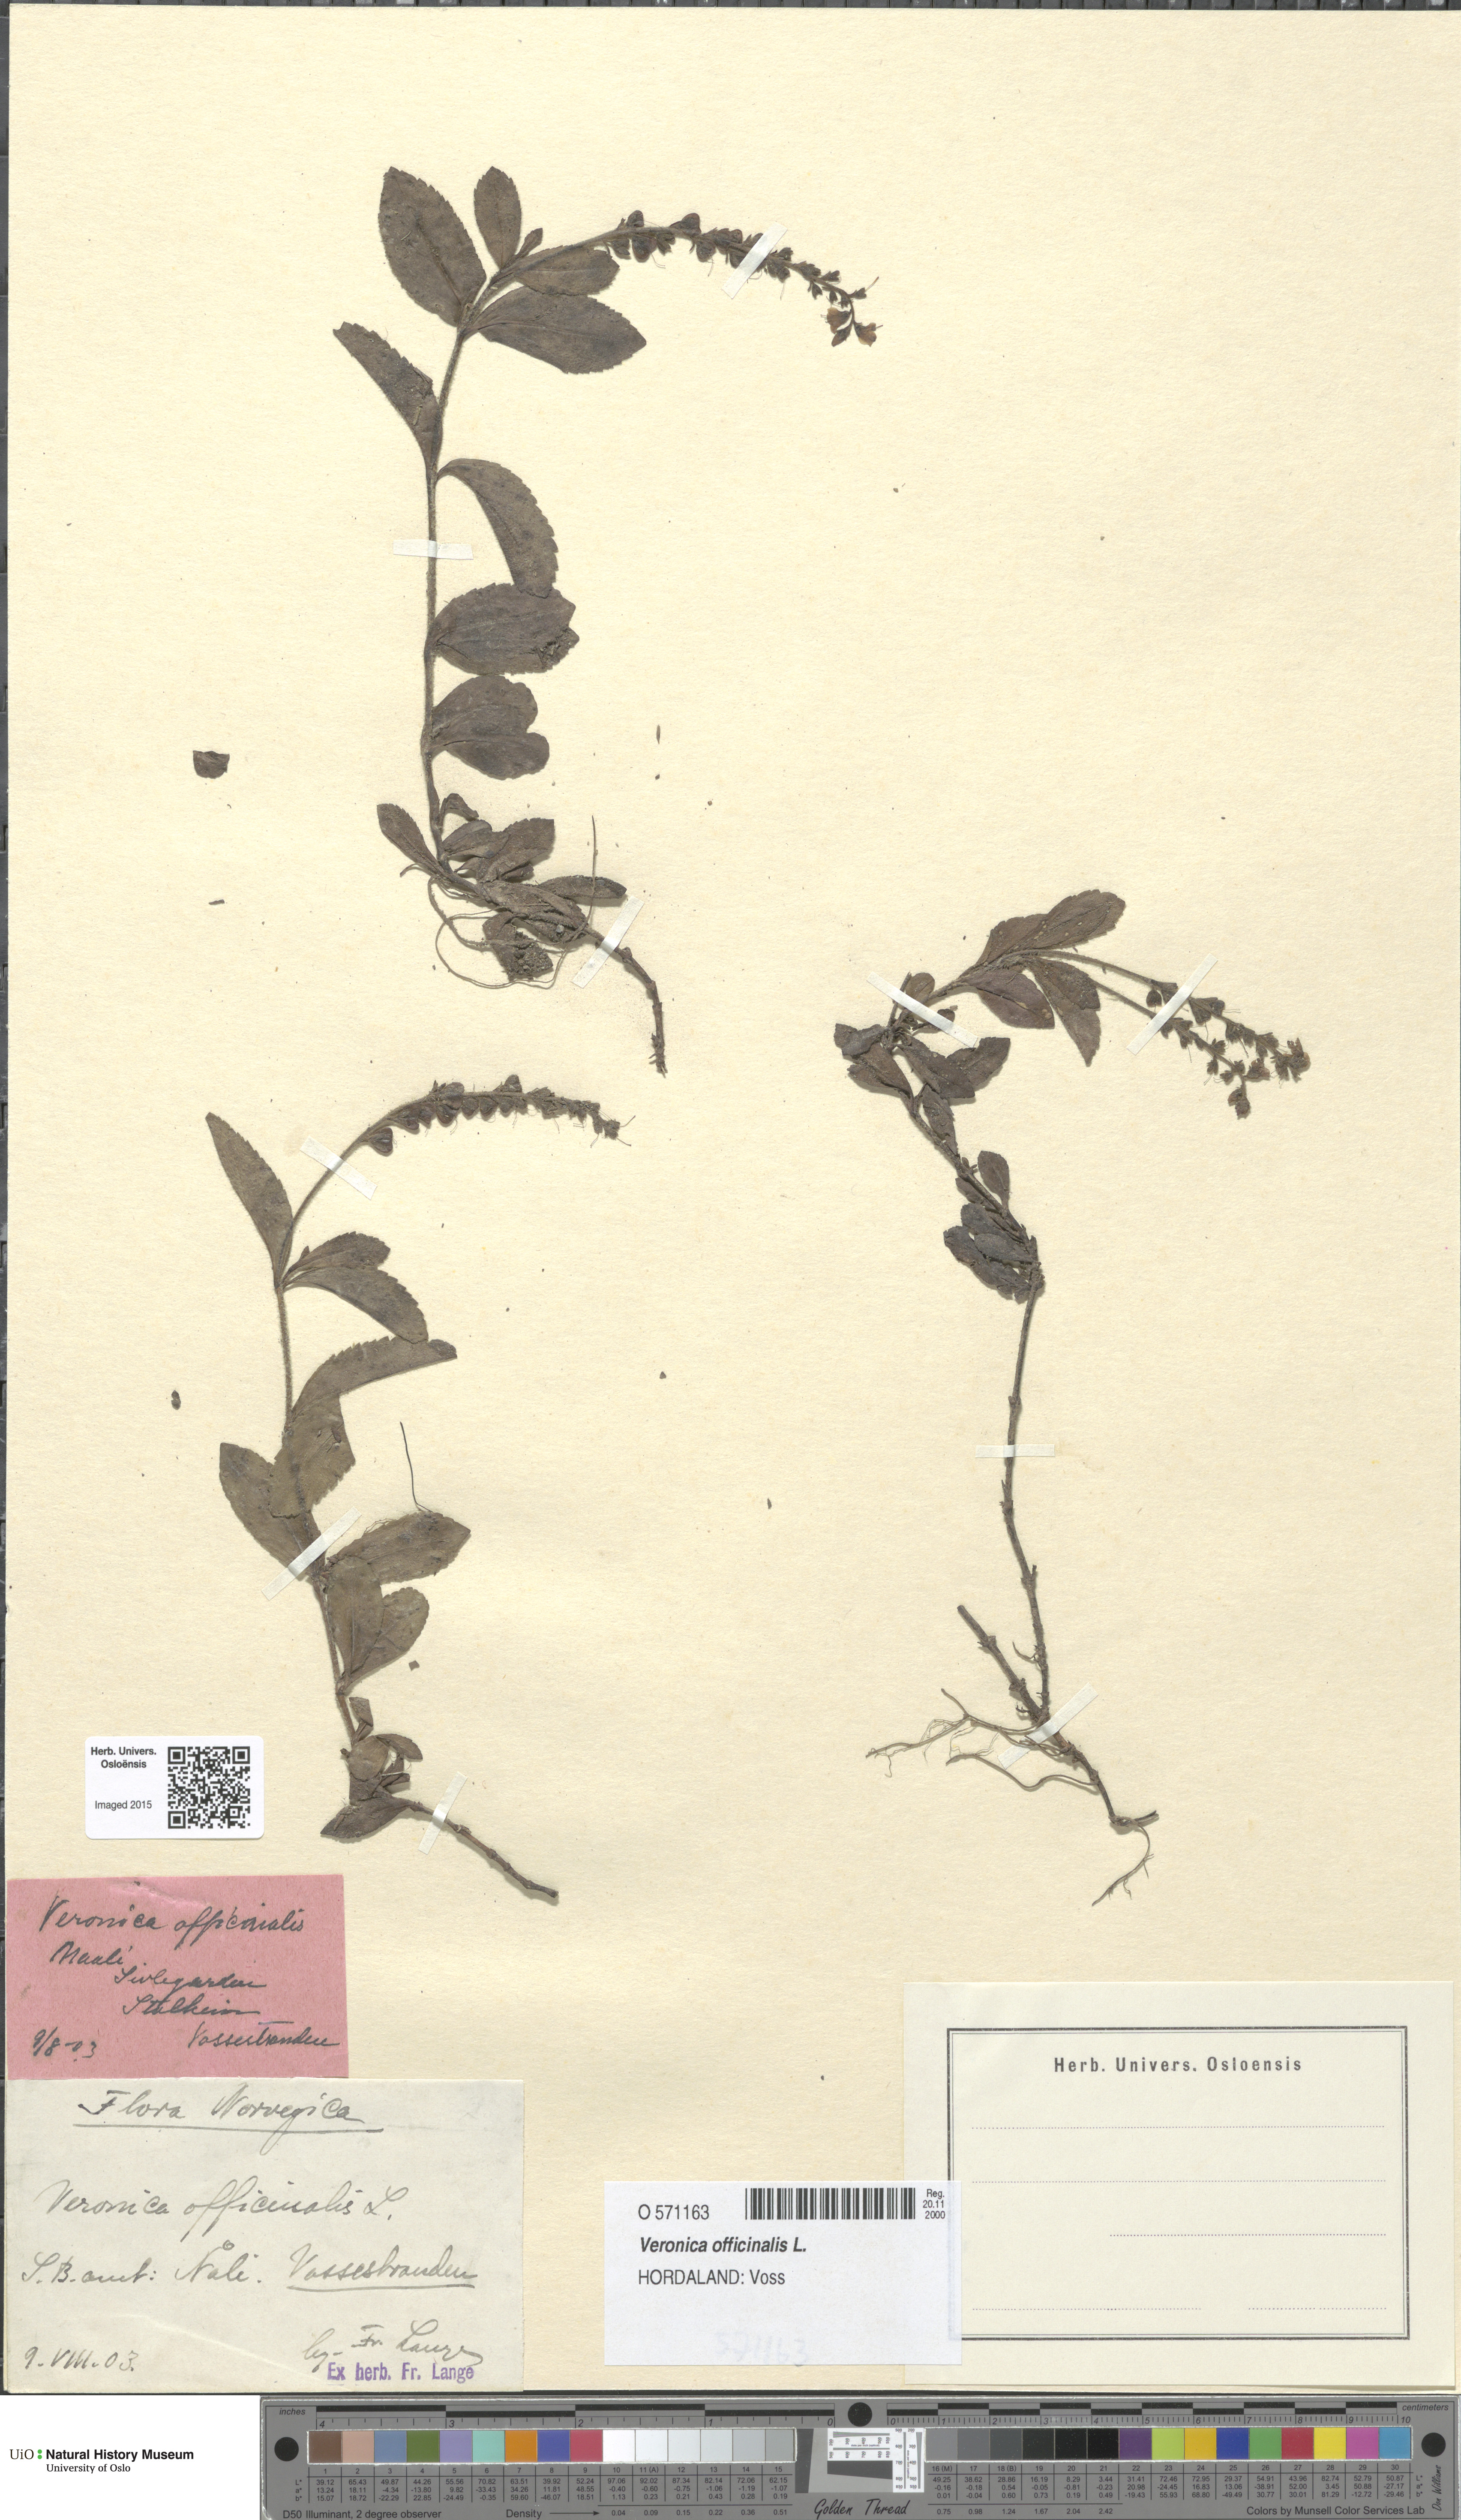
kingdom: Plantae
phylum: Tracheophyta
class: Magnoliopsida
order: Lamiales
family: Plantaginaceae
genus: Veronica
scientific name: Veronica officinalis
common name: Common speedwell
